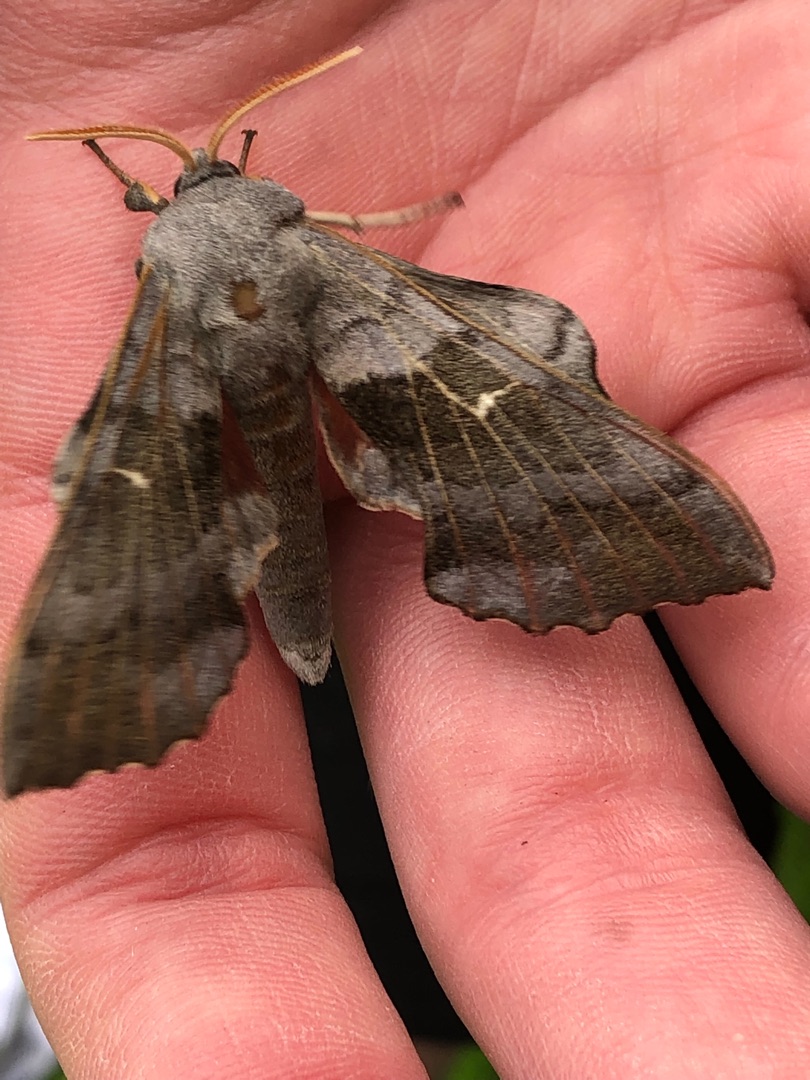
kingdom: Animalia
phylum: Arthropoda
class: Insecta
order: Lepidoptera
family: Sphingidae
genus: Laothoe
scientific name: Laothoe populi
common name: Poppelsværmer
